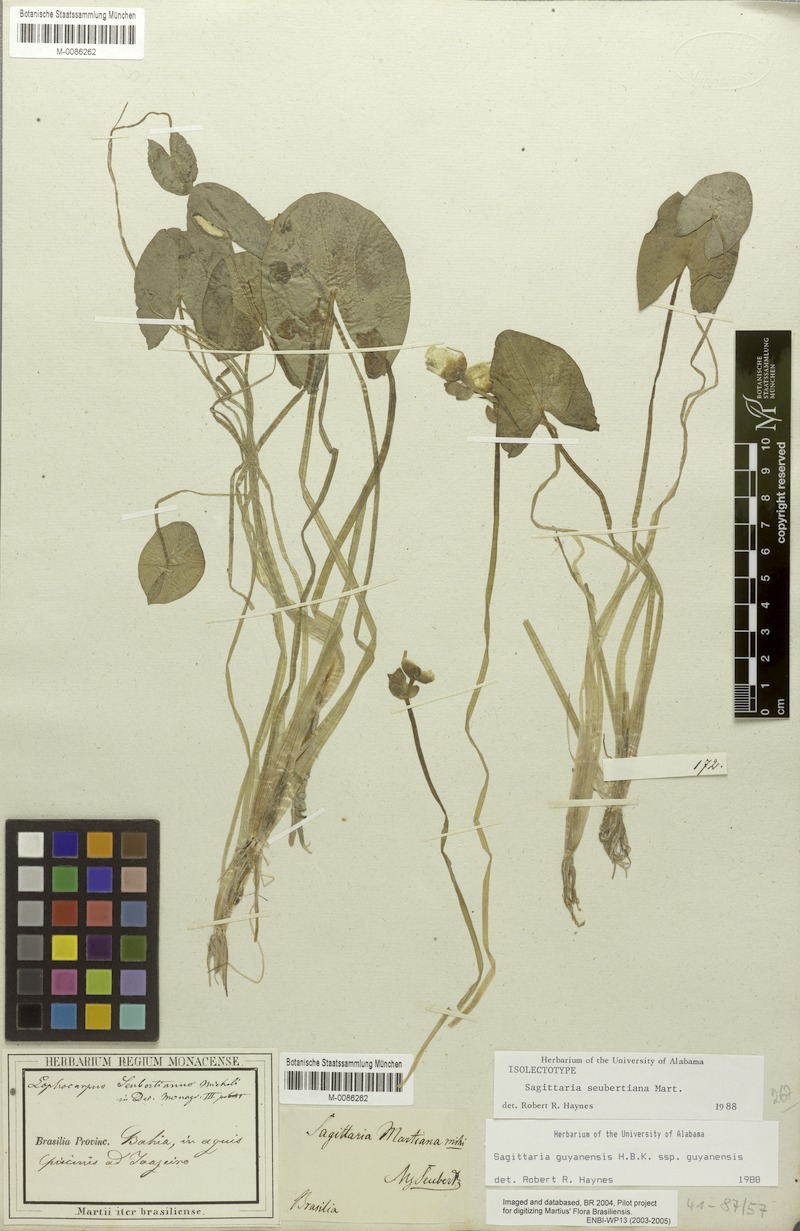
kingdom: Plantae
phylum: Tracheophyta
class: Liliopsida
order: Alismatales
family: Alismataceae
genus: Sagittaria
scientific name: Sagittaria guayanensis
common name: Guyanese arrowhead
